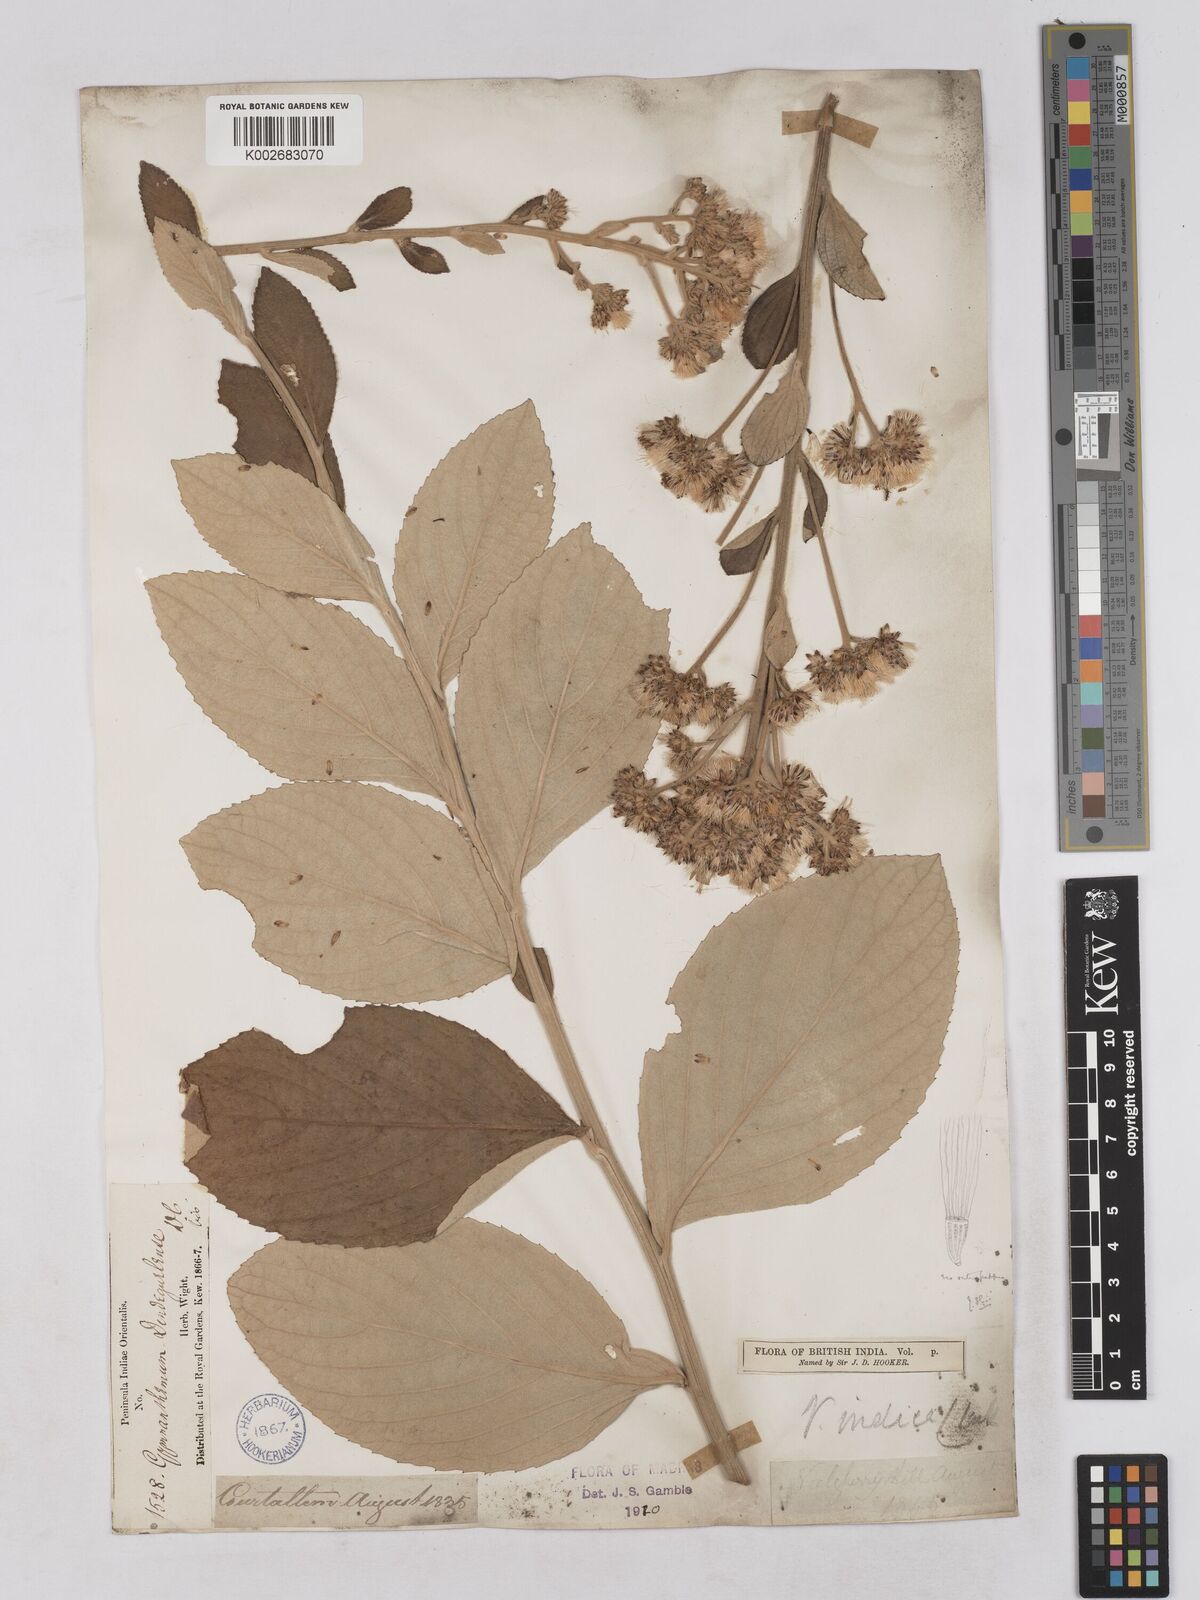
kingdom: Plantae
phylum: Tracheophyta
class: Magnoliopsida
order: Asterales
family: Asteraceae
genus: Acilepis
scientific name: Acilepis dendigulensis
